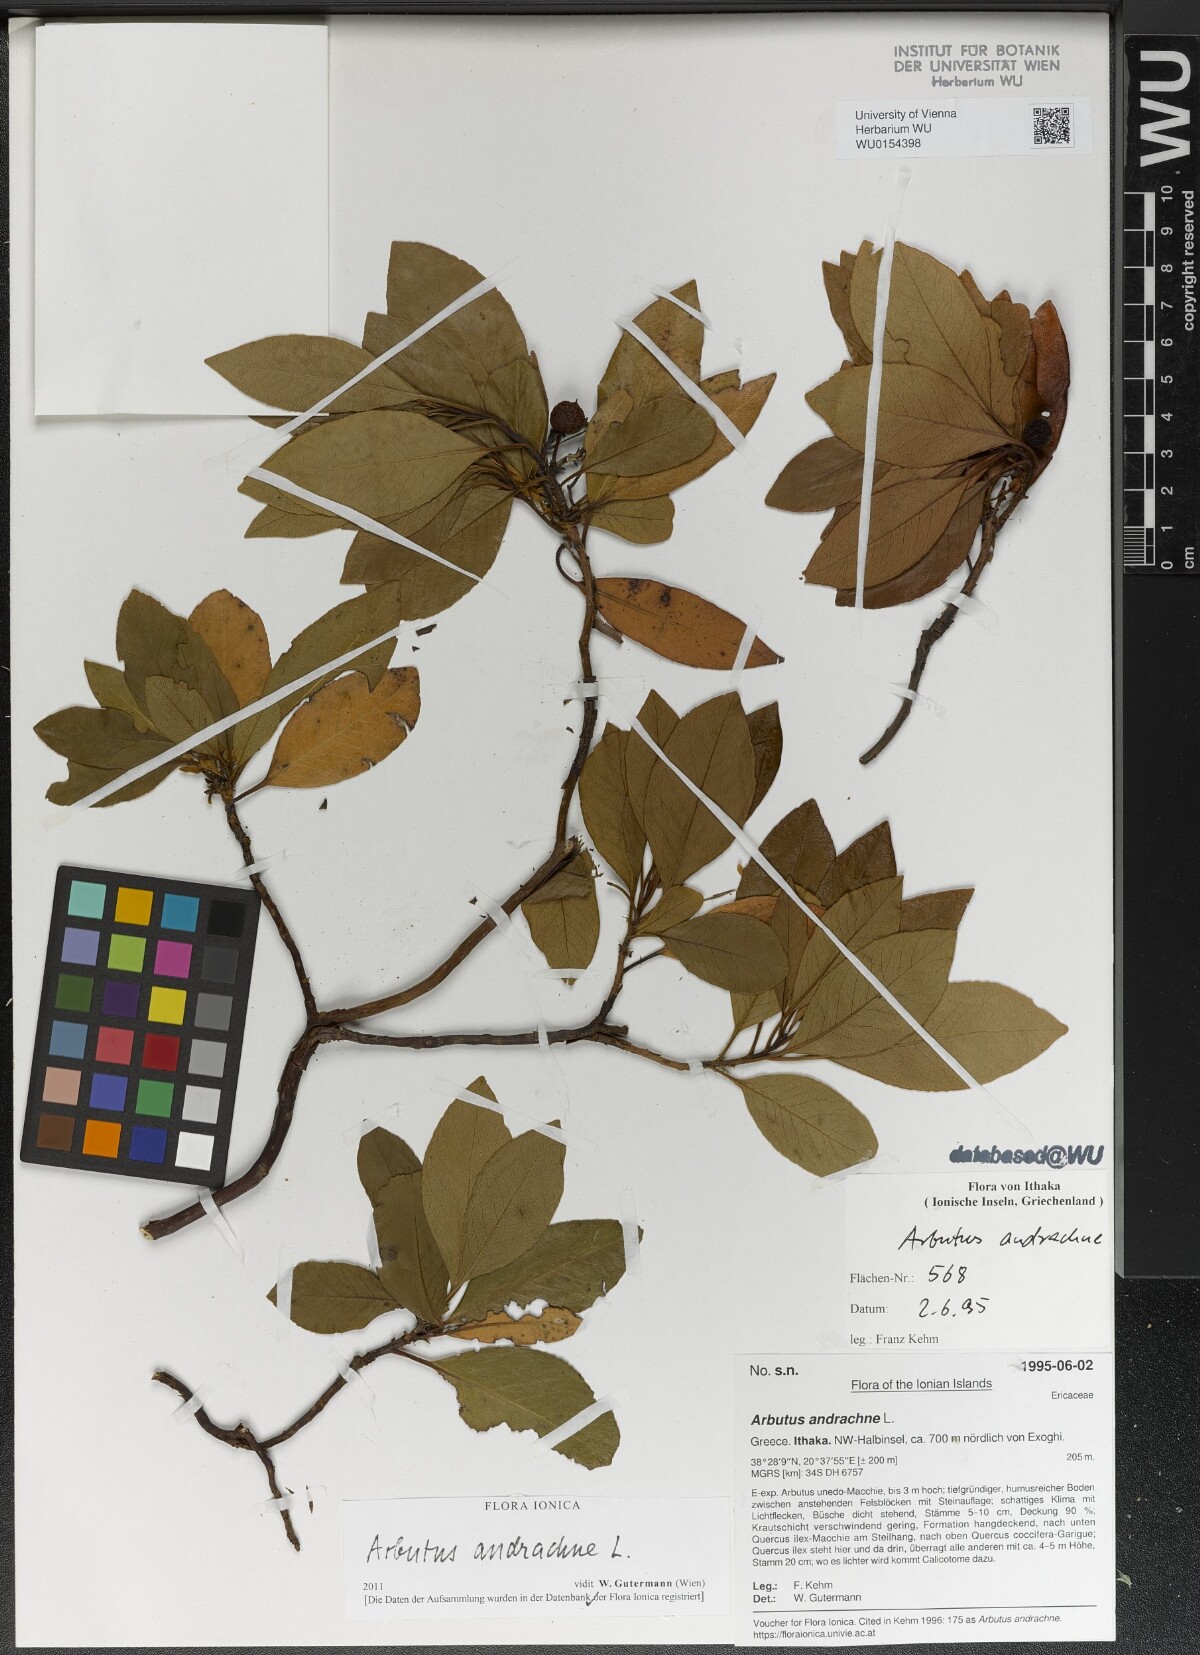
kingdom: Plantae
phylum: Tracheophyta
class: Magnoliopsida
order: Ericales
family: Ericaceae
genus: Arbutus
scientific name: Arbutus andrachne
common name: Greek strawberry tree
